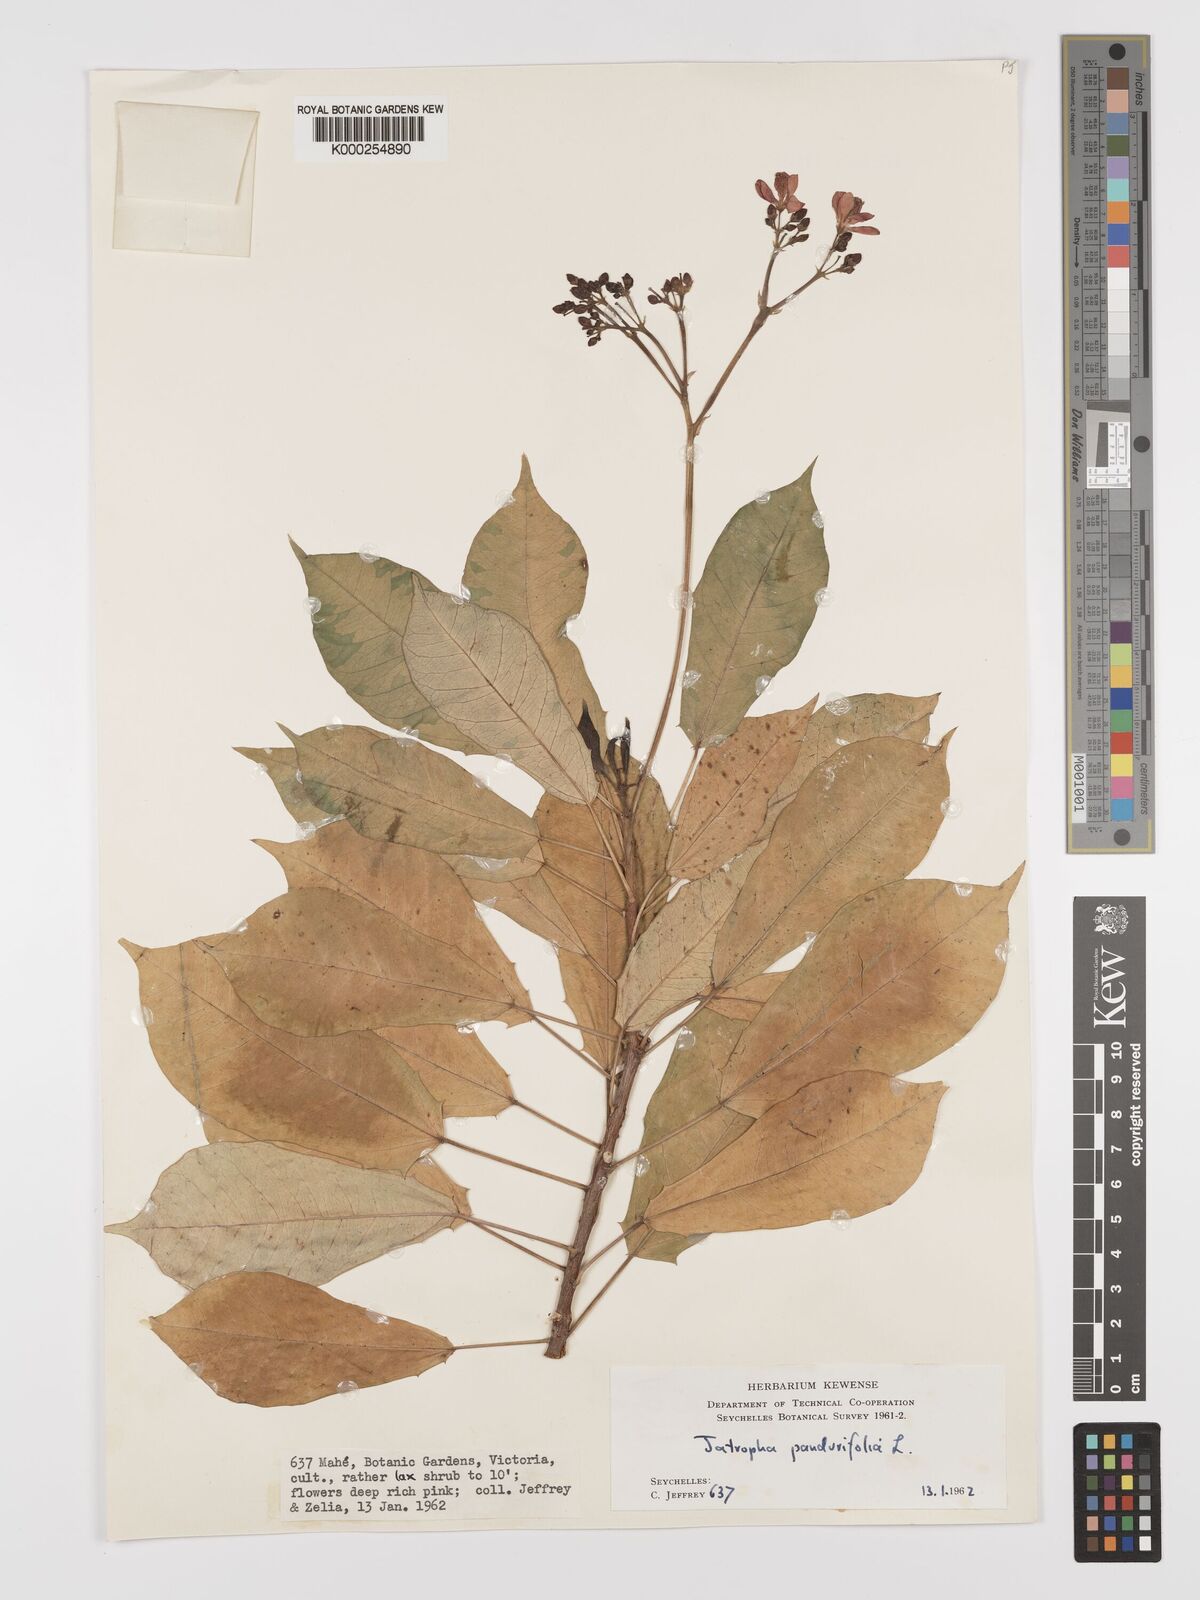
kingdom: Plantae
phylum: Tracheophyta
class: Magnoliopsida
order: Malpighiales
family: Euphorbiaceae
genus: Jatropha
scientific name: Jatropha integerrima
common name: Peregrina
